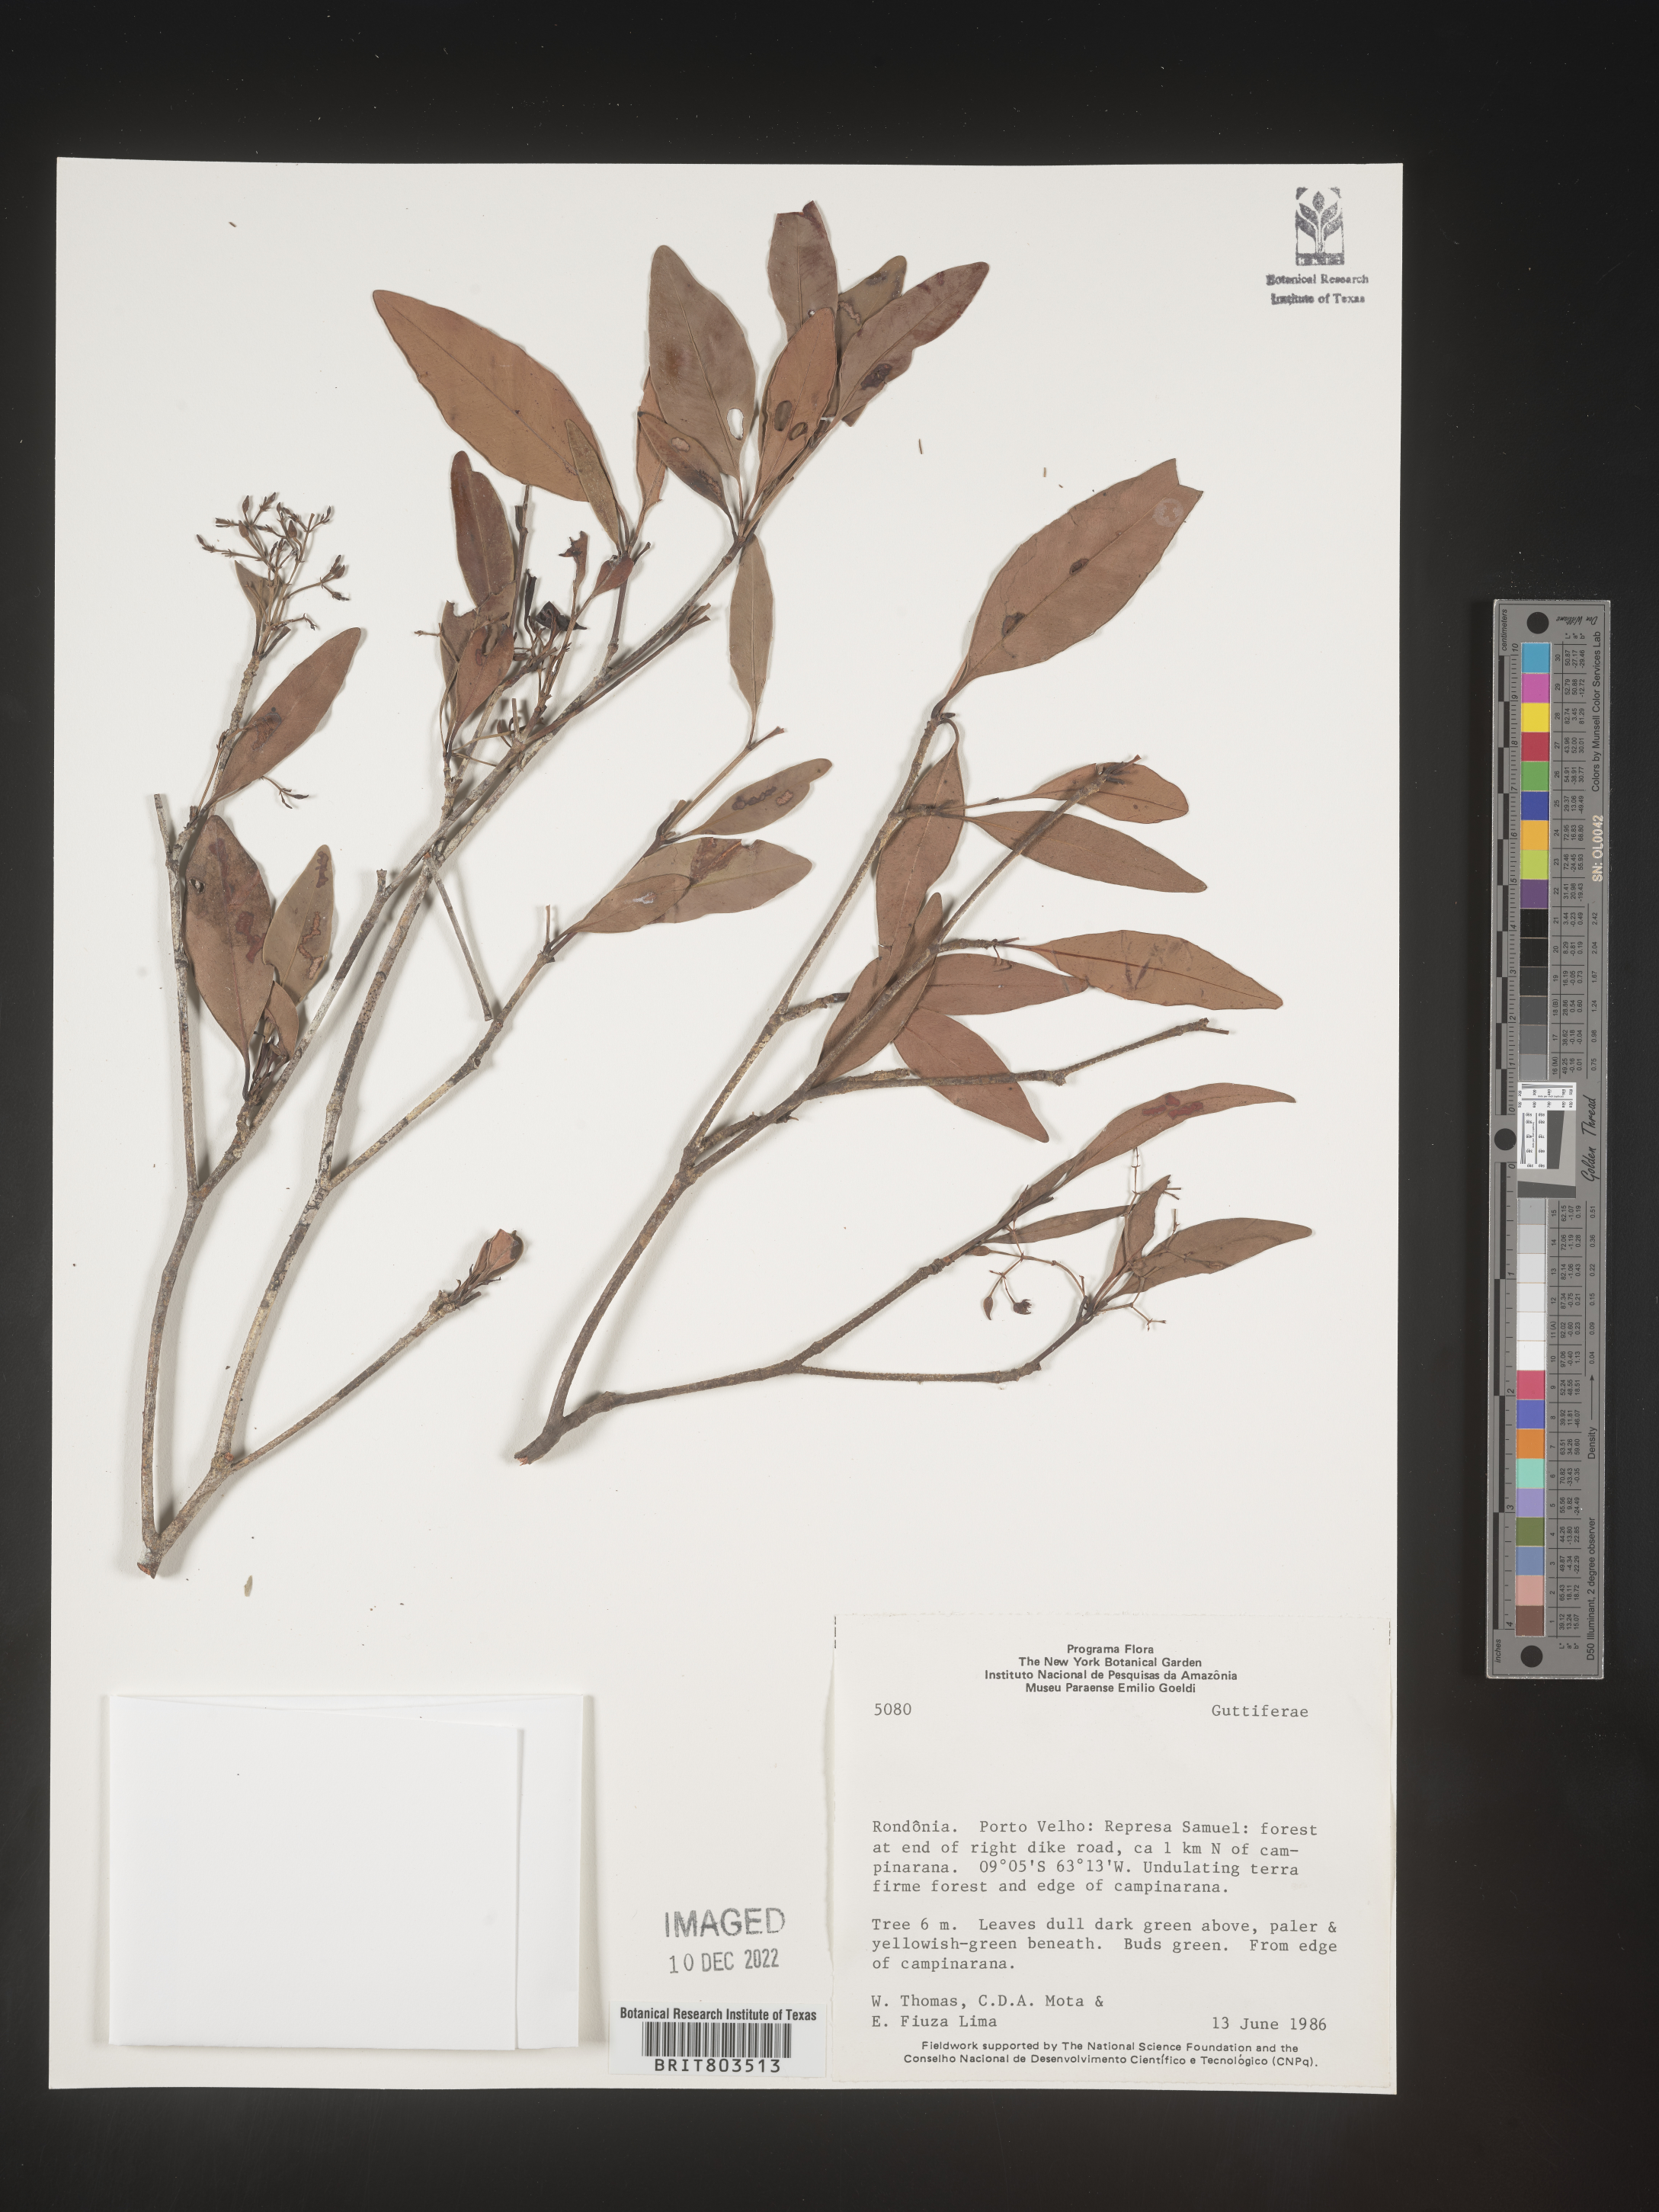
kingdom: Plantae
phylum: Tracheophyta
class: Magnoliopsida
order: Malpighiales
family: Clusiaceae
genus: Tovomita
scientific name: Tovomita
